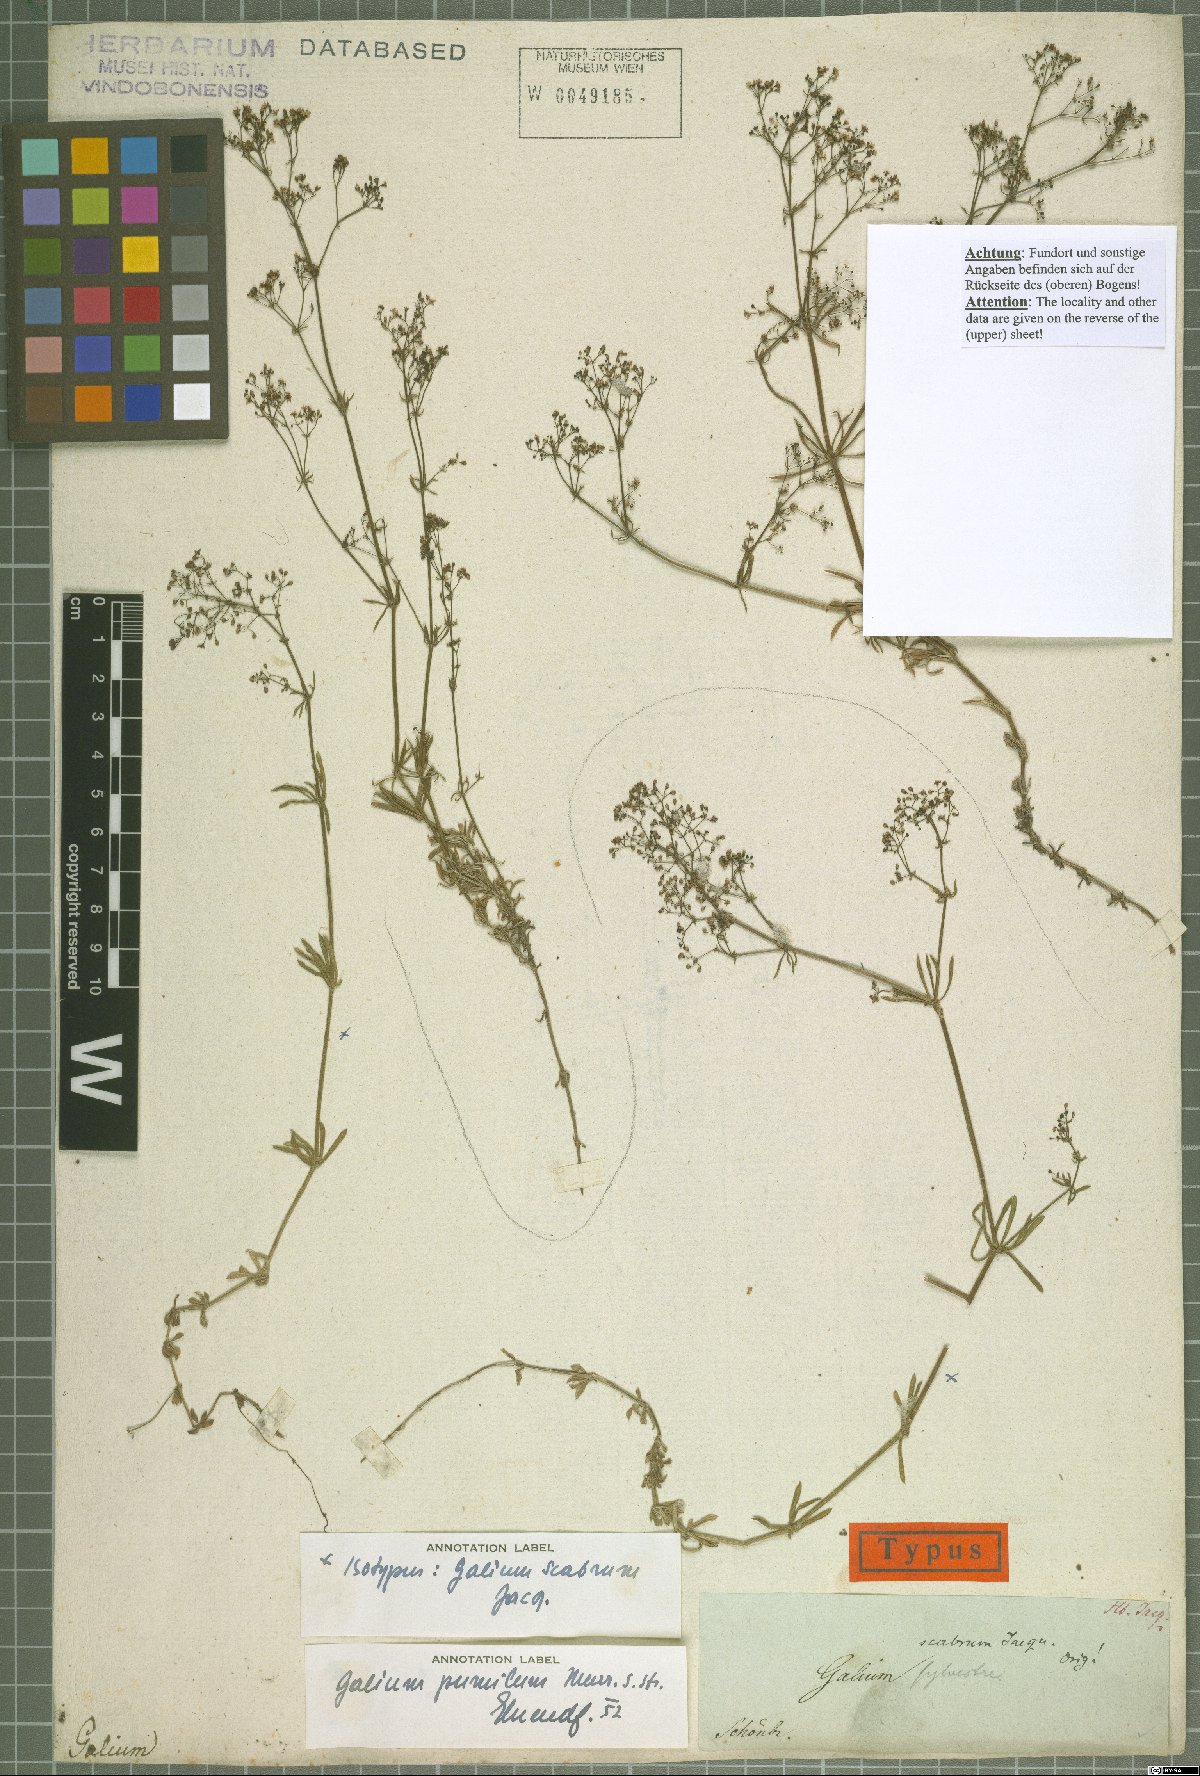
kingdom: Plantae
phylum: Tracheophyta
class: Magnoliopsida
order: Gentianales
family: Rubiaceae
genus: Galium
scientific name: Galium pumilum
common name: Slender bedstraw
